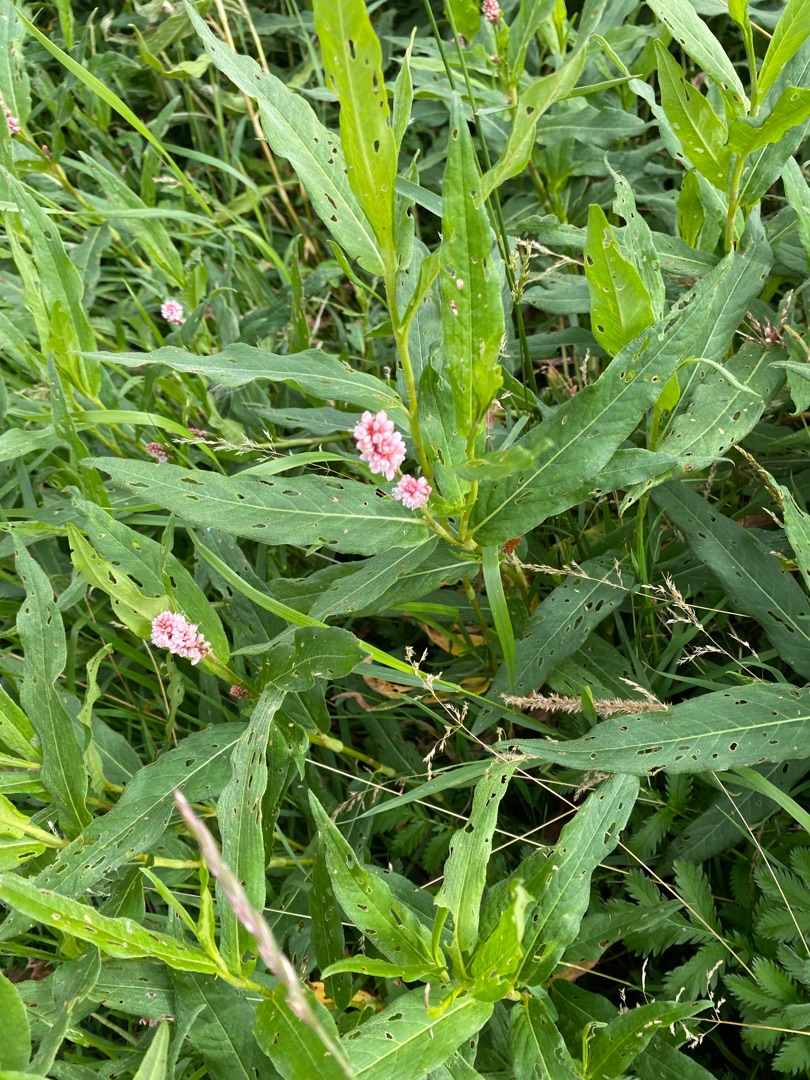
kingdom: Plantae
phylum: Tracheophyta
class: Magnoliopsida
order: Caryophyllales
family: Polygonaceae
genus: Persicaria
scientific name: Persicaria amphibia
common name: Vand-pileurt
